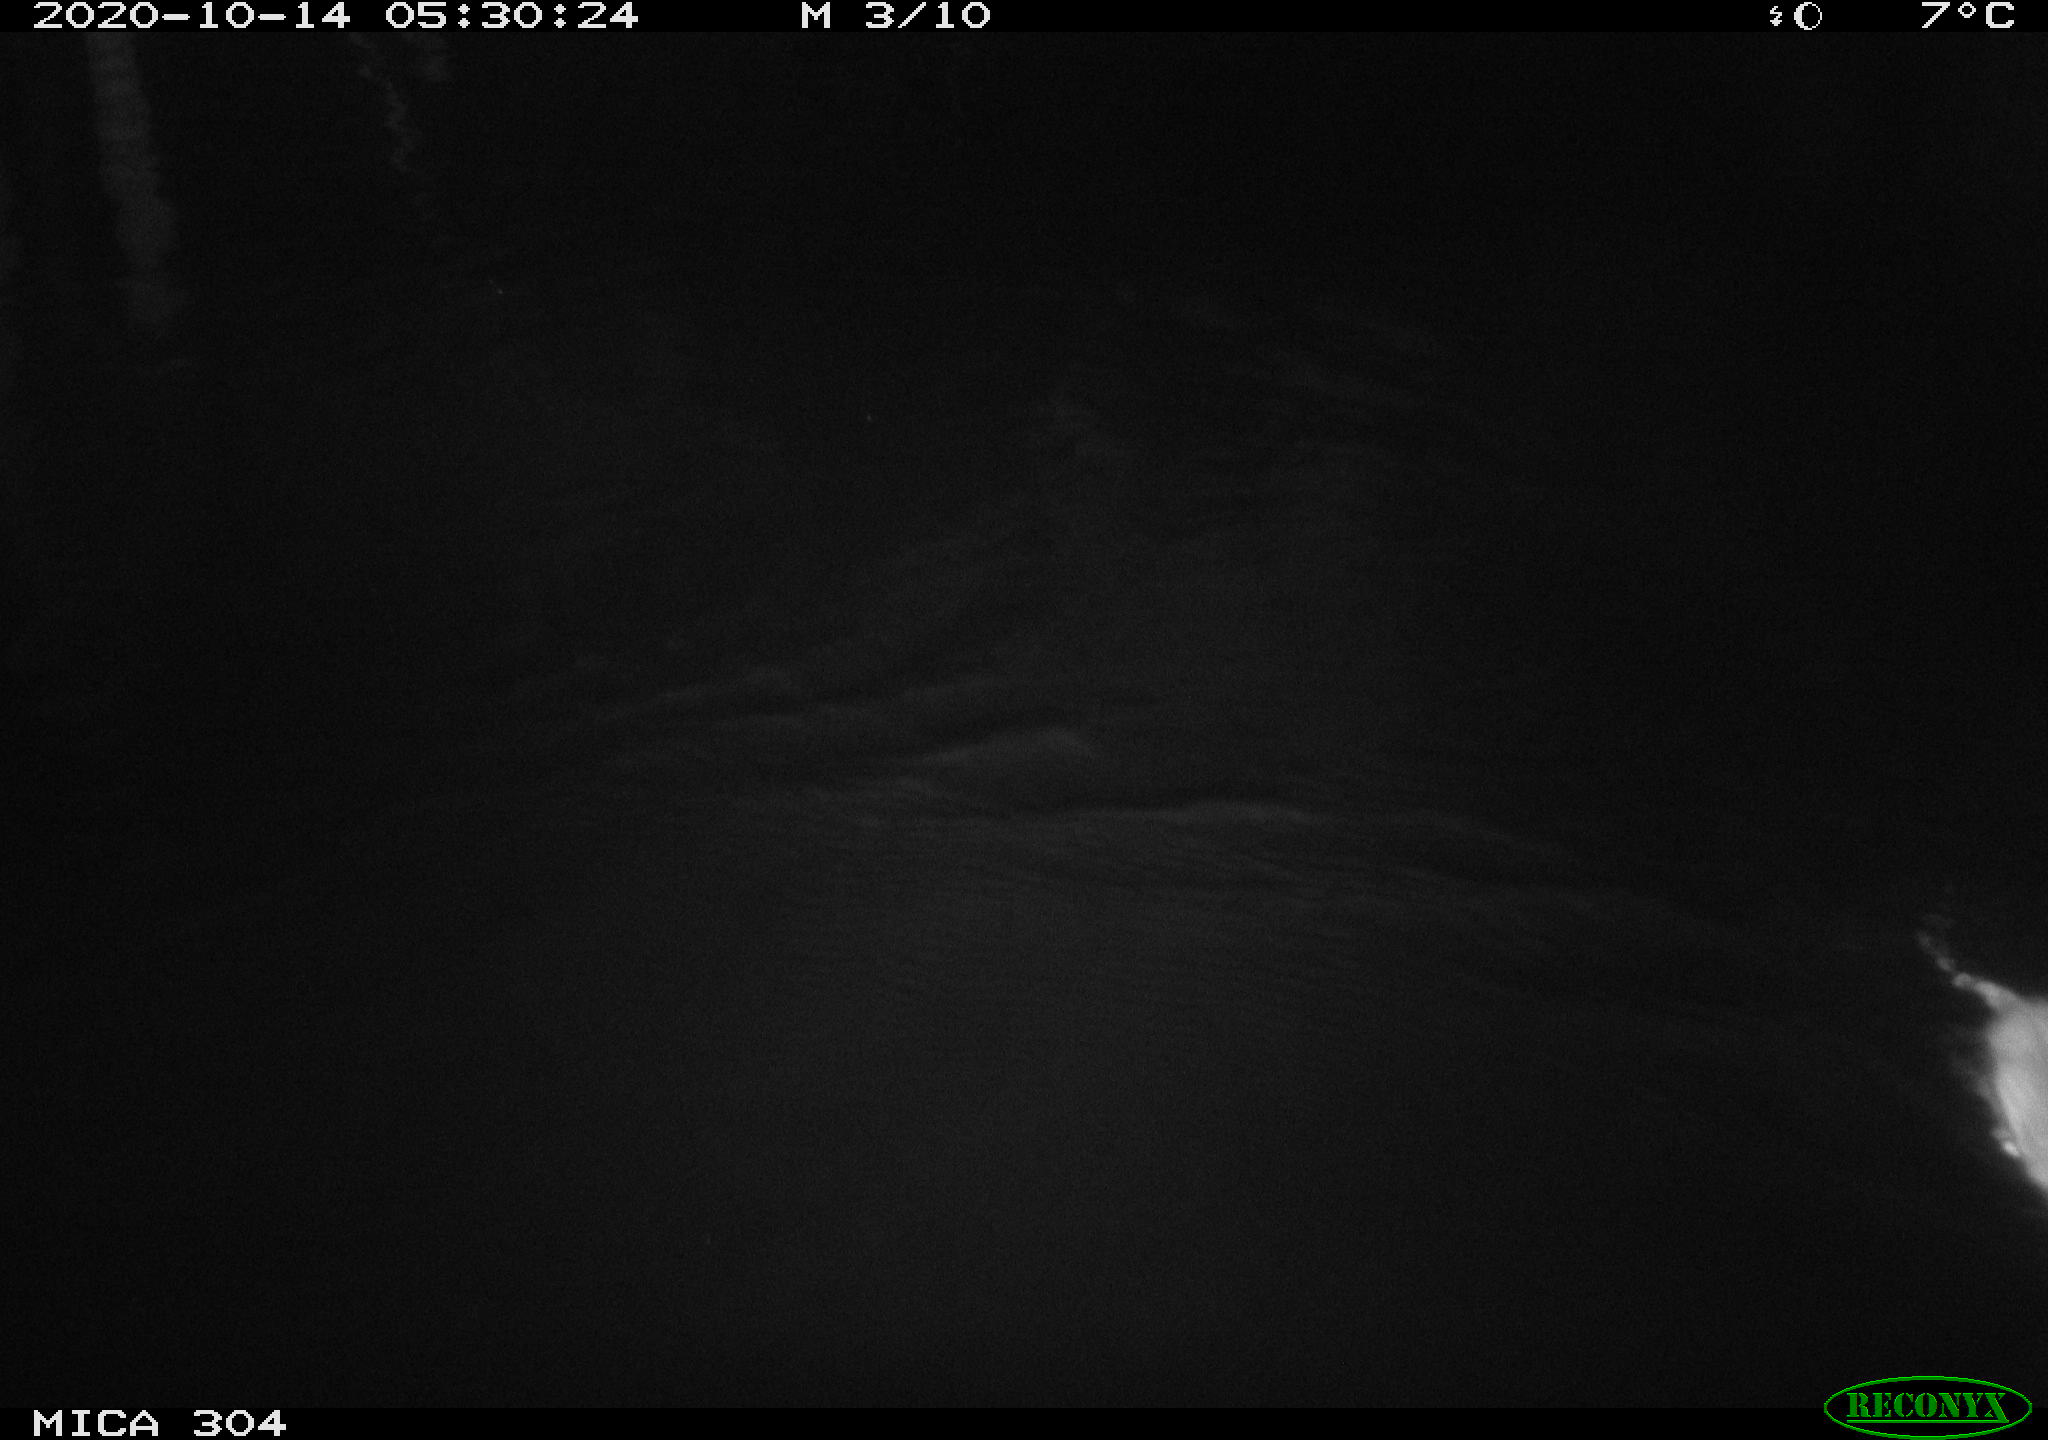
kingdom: Animalia
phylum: Chordata
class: Mammalia
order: Rodentia
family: Muridae
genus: Rattus
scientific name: Rattus norvegicus
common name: Brown rat
